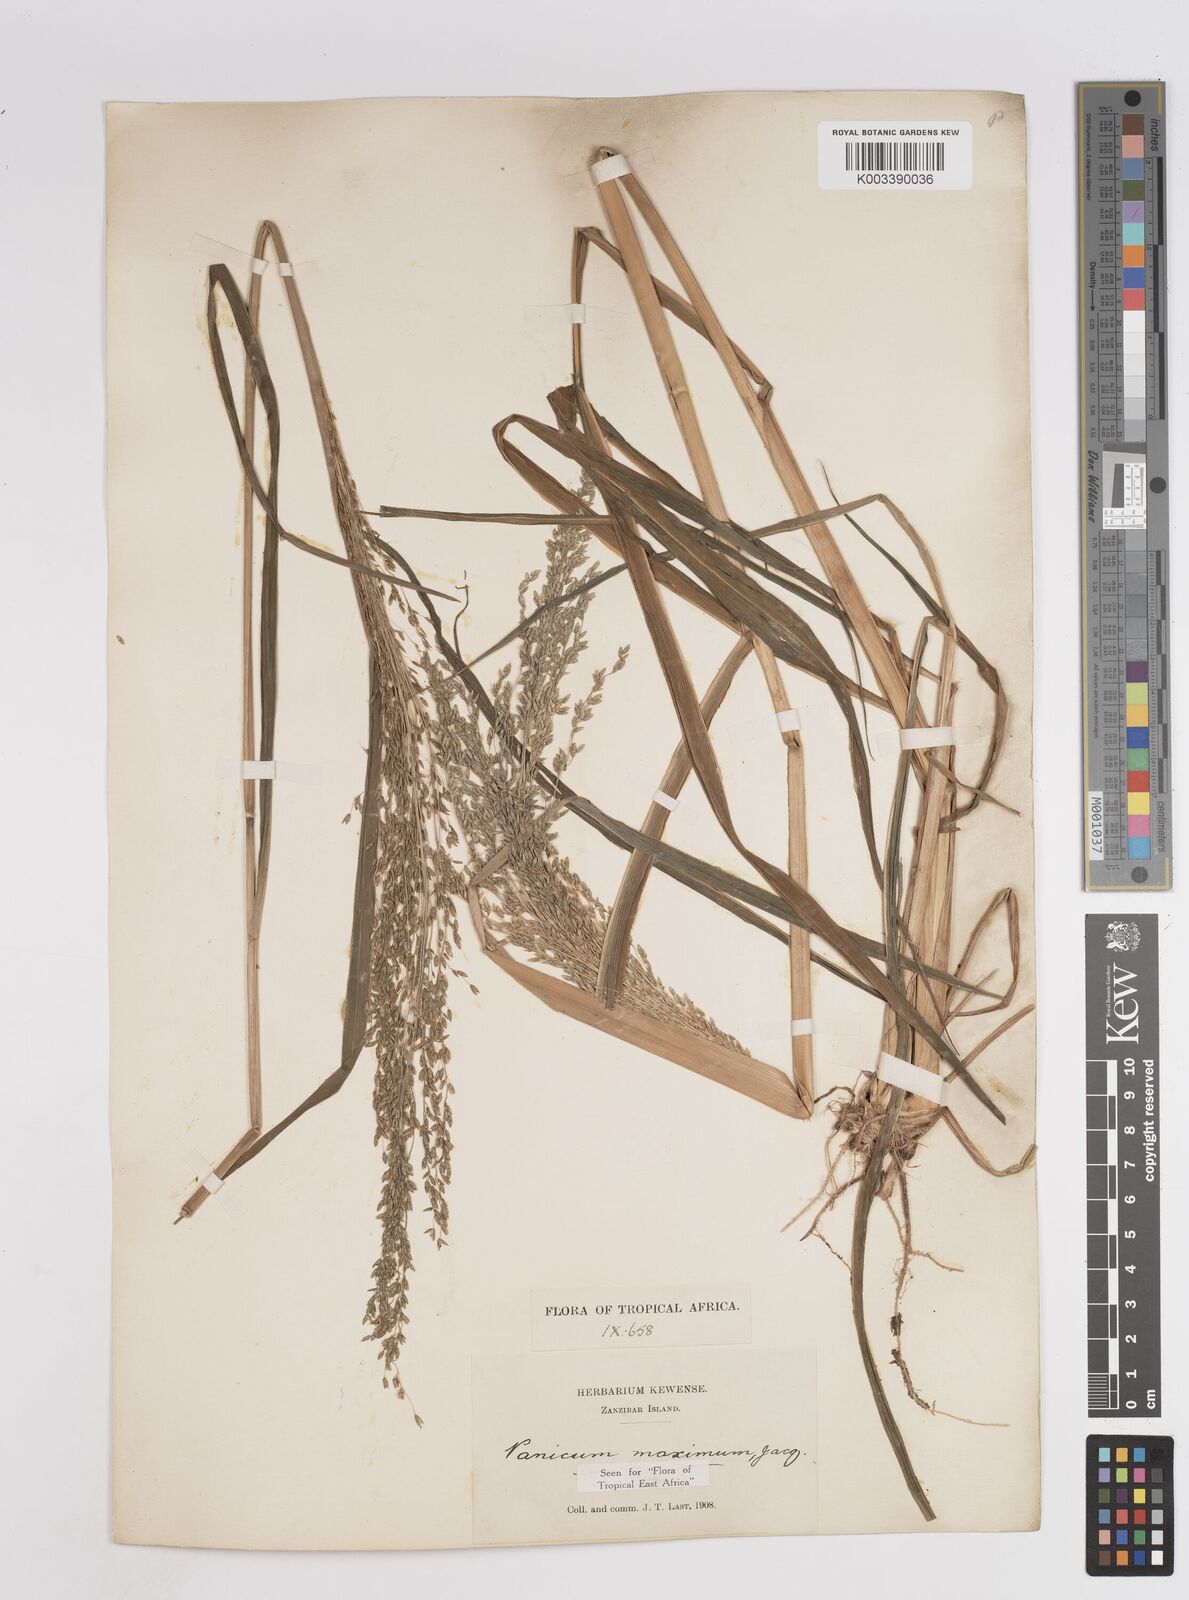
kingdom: Plantae
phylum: Tracheophyta
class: Liliopsida
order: Poales
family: Poaceae
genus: Megathyrsus
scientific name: Megathyrsus maximus
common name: Guineagrass
